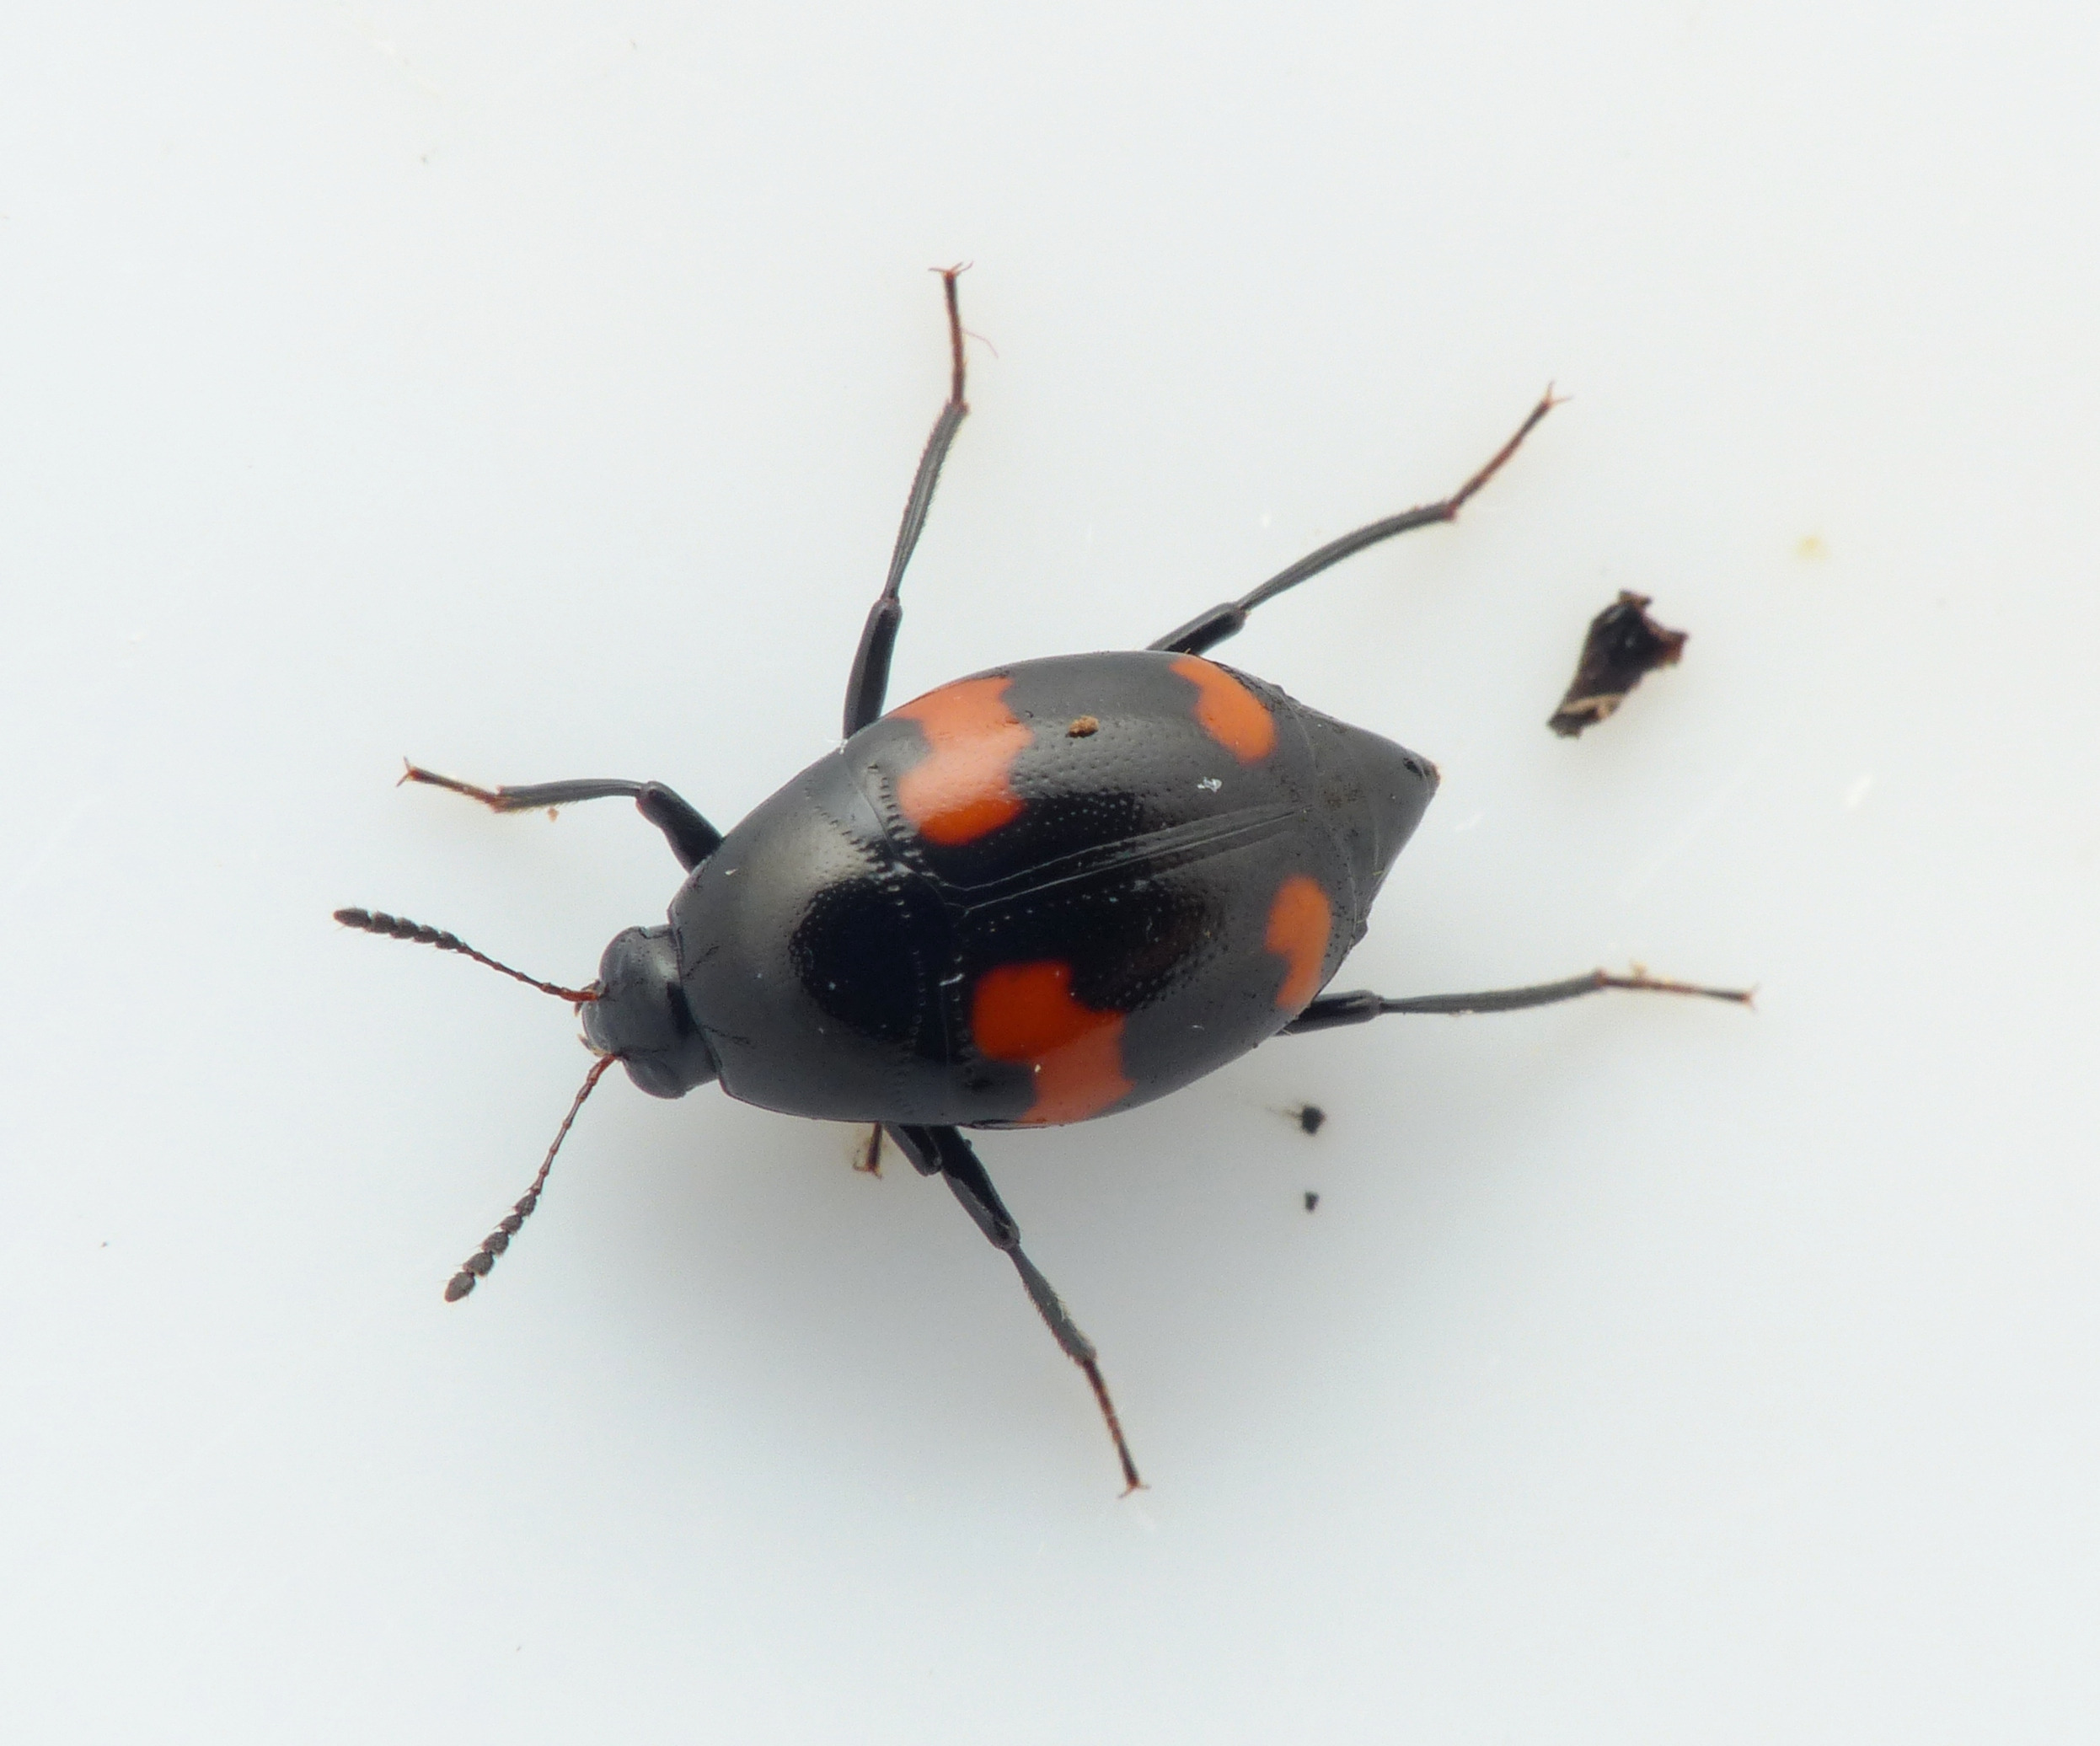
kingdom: Animalia
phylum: Arthropoda
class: Insecta
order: Coleoptera
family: Staphylinidae
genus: Scaphidium
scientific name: Scaphidium quadrimaculatum
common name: Dråberovbille
